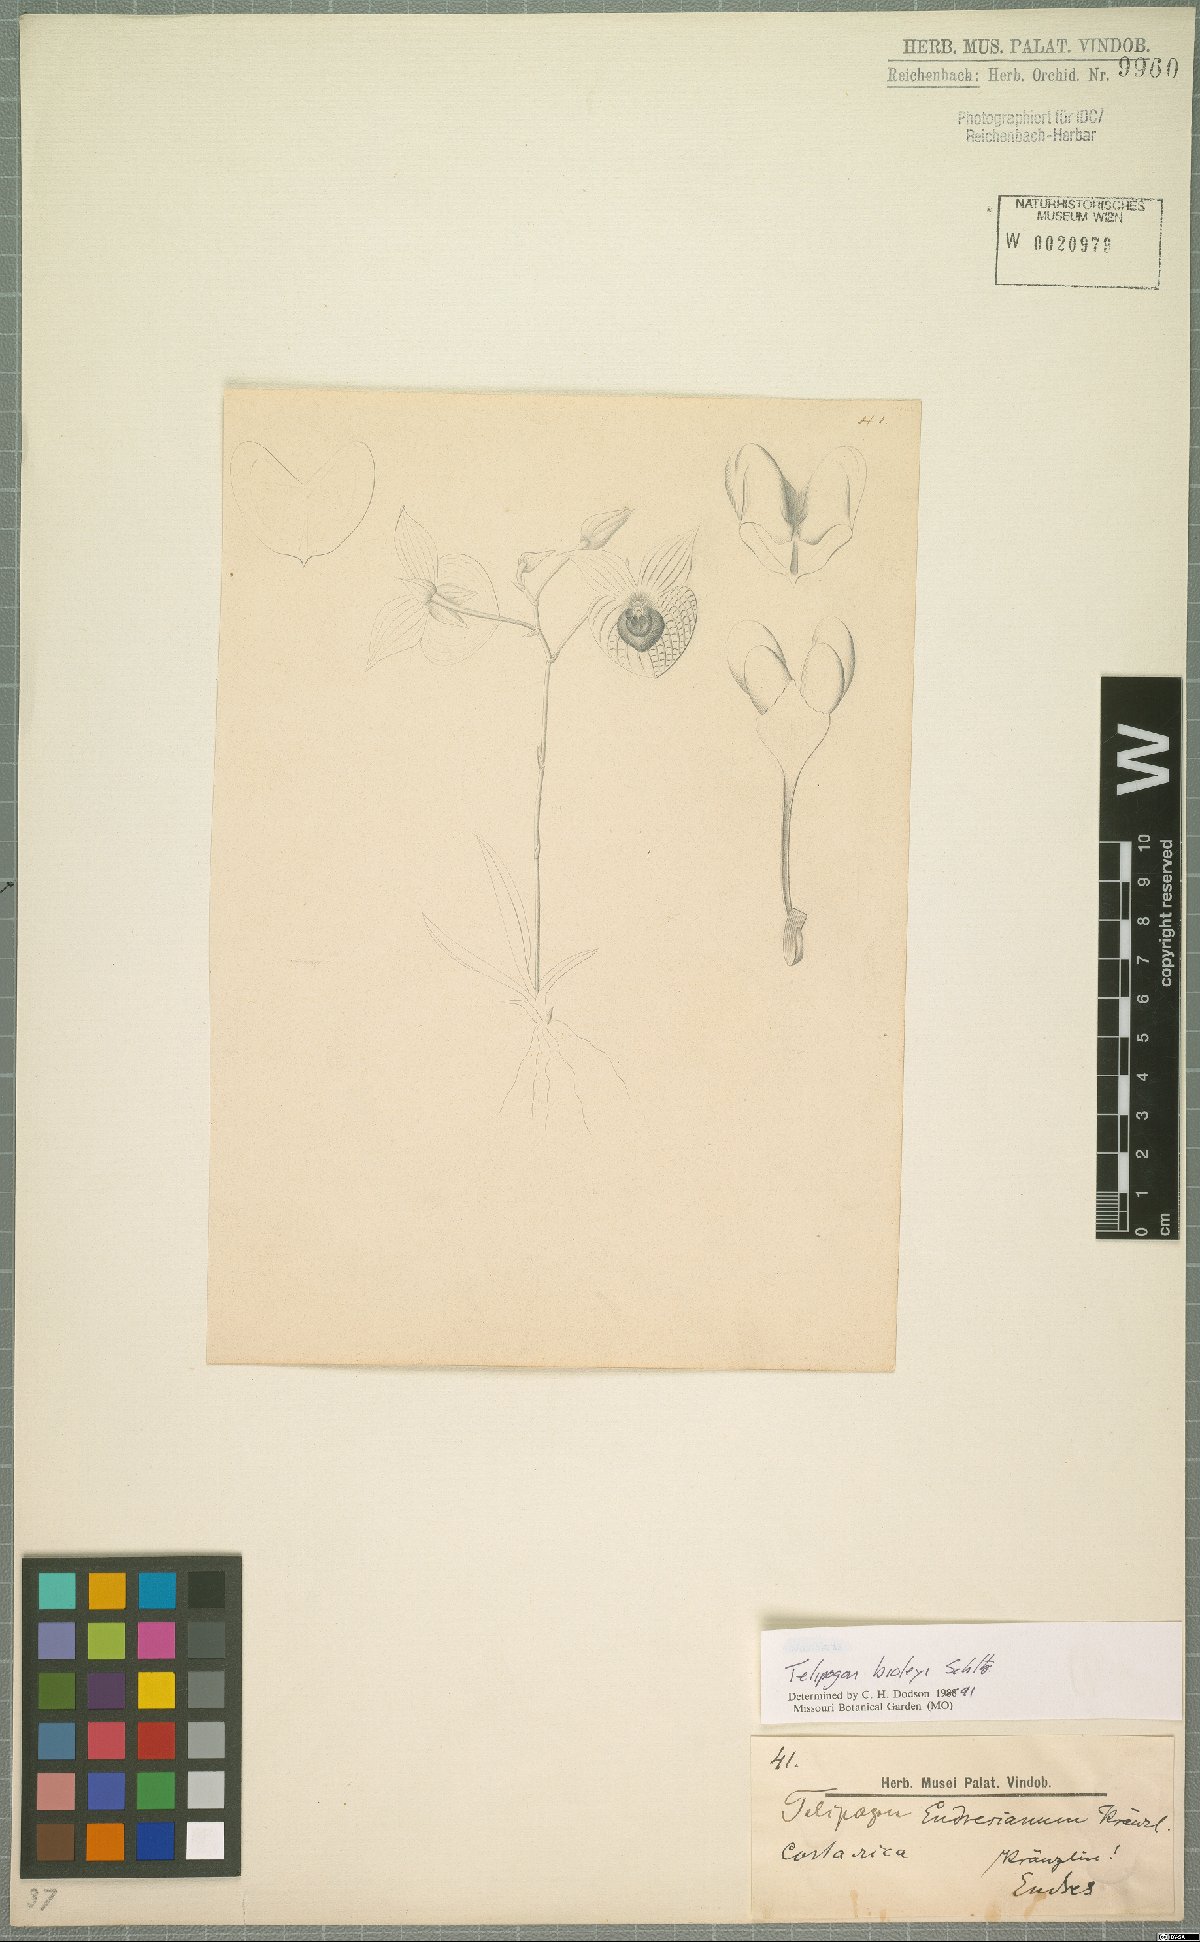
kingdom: Plantae
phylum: Tracheophyta
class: Liliopsida
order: Asparagales
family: Orchidaceae
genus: Telipogon
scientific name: Telipogon biolleyi
